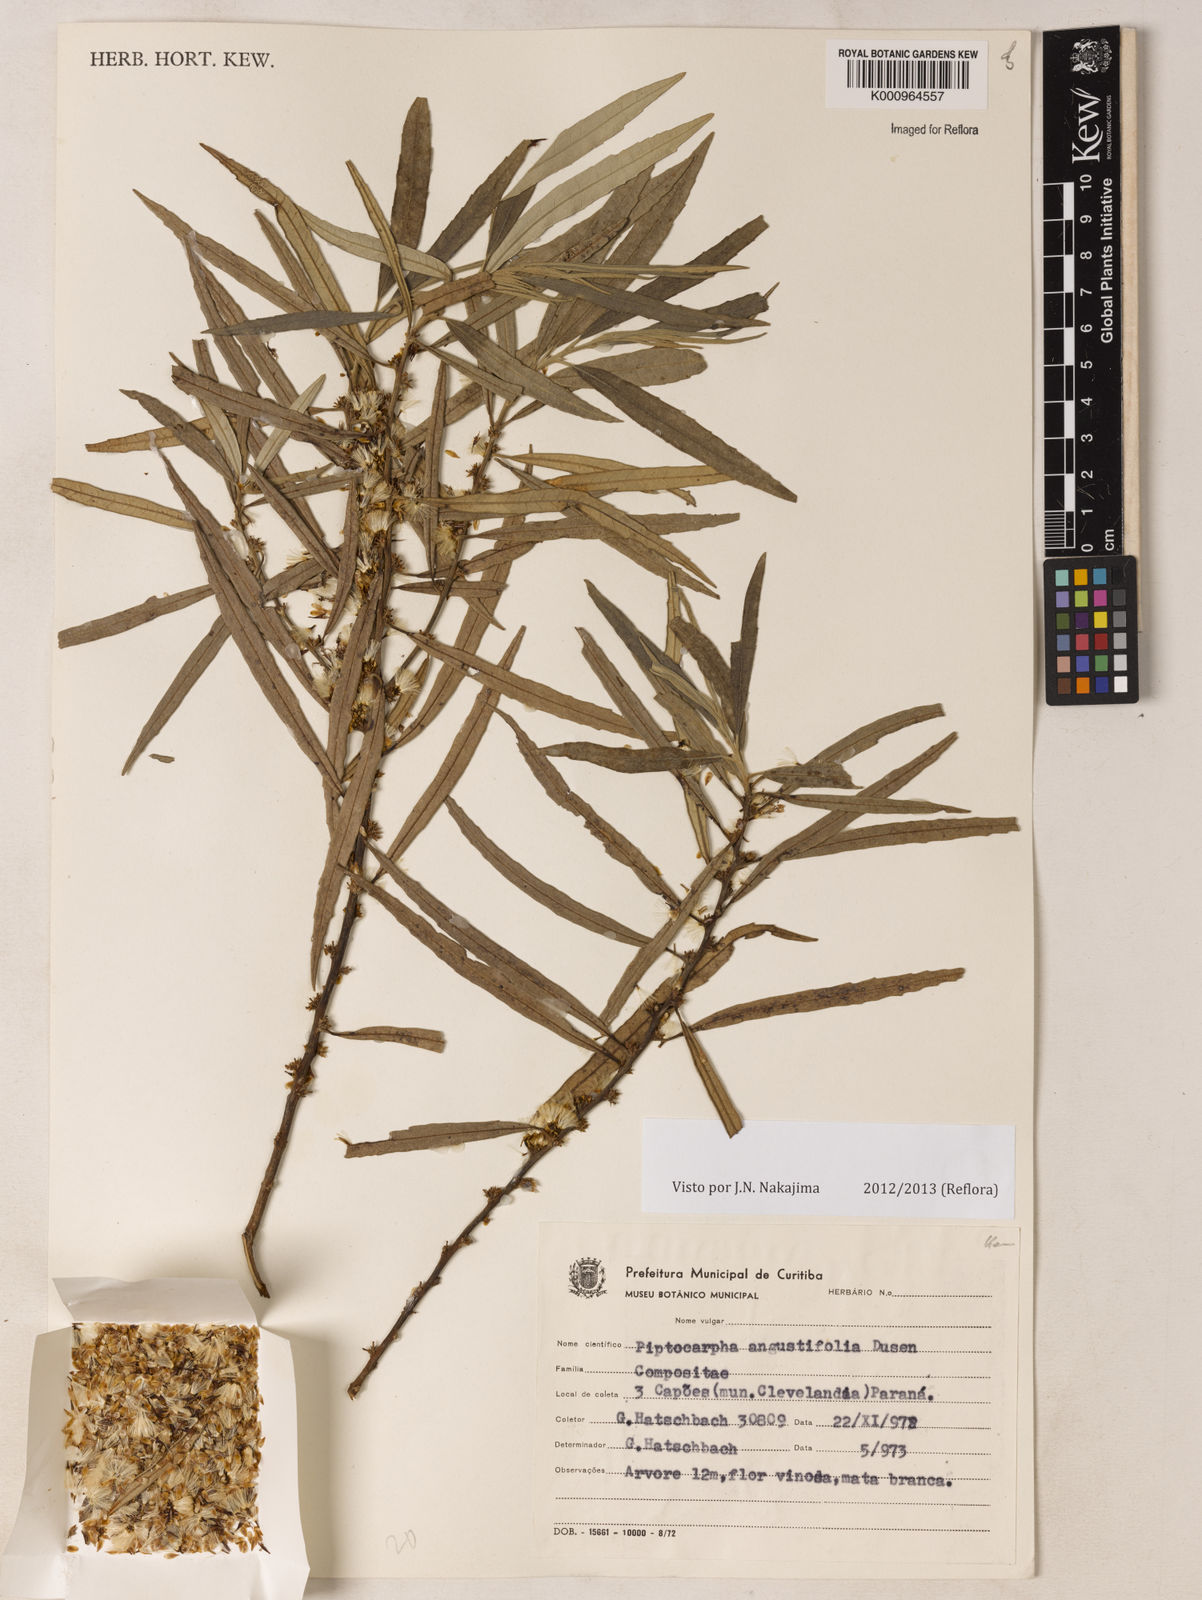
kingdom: Plantae
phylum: Tracheophyta
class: Magnoliopsida
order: Asterales
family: Asteraceae
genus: Piptocarpha
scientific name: Piptocarpha
